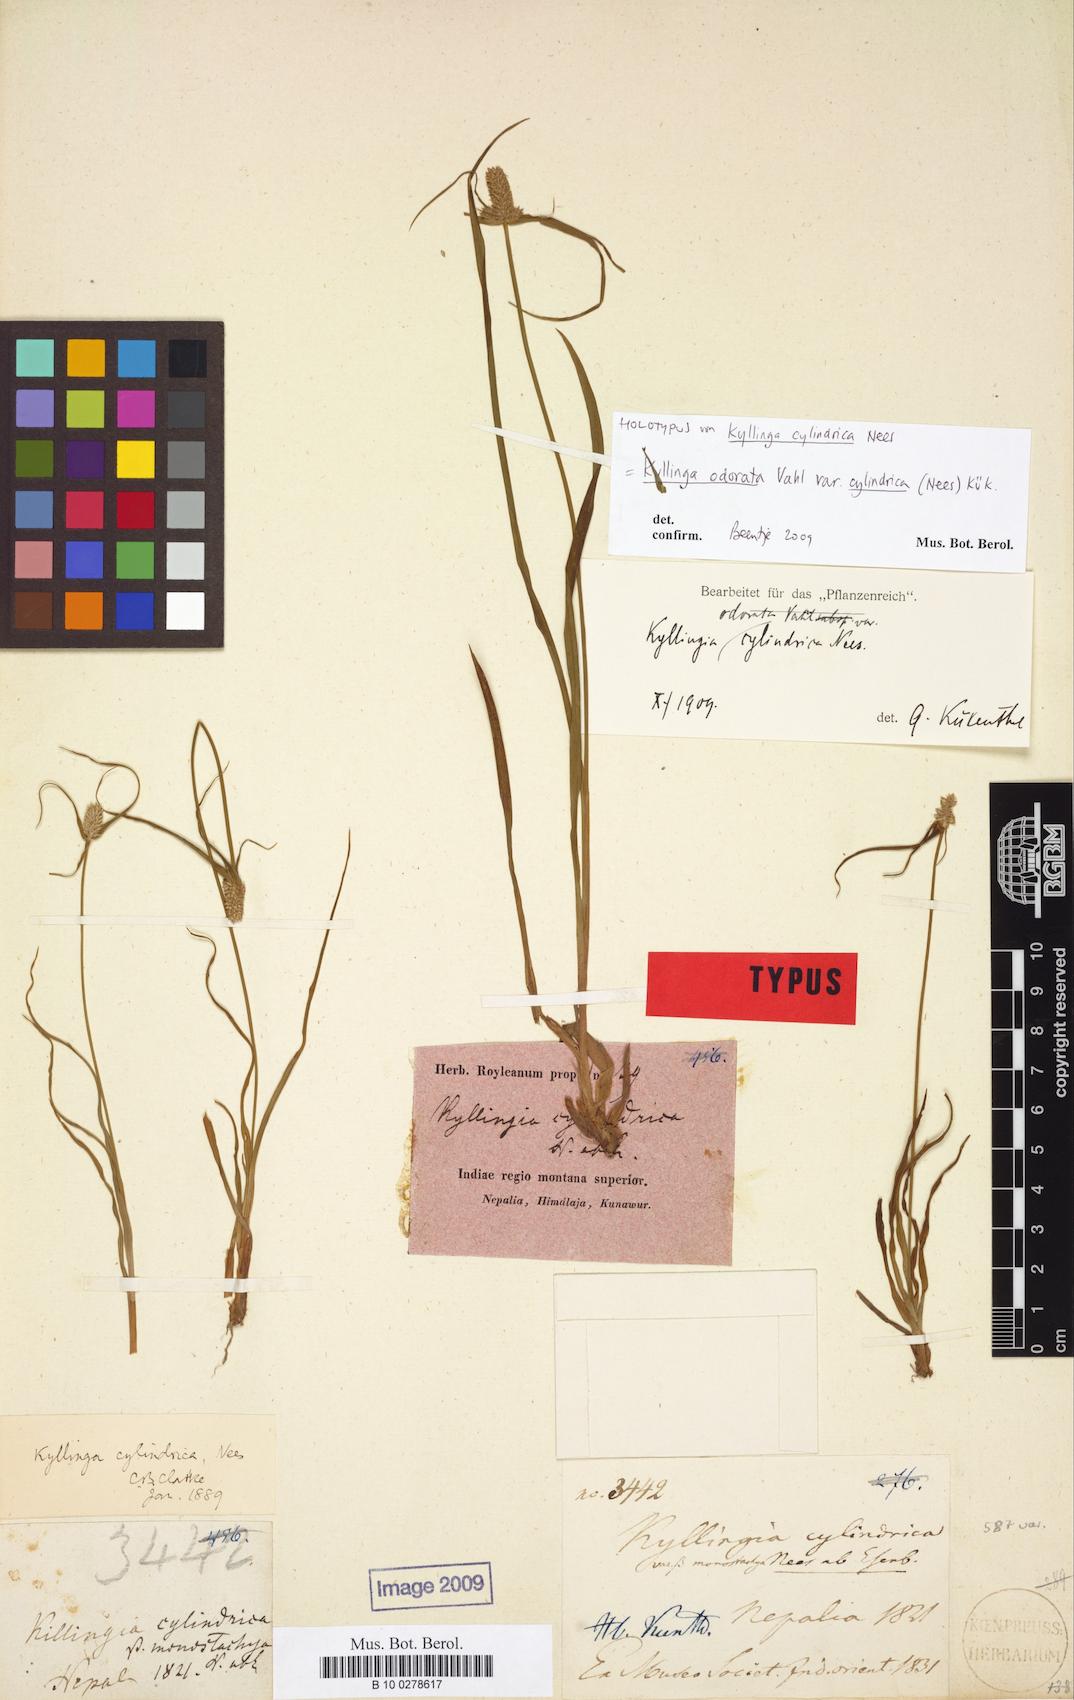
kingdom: Plantae
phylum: Tracheophyta
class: Liliopsida
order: Poales
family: Cyperaceae
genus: Cyperus
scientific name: Cyperus sesquiflorus
